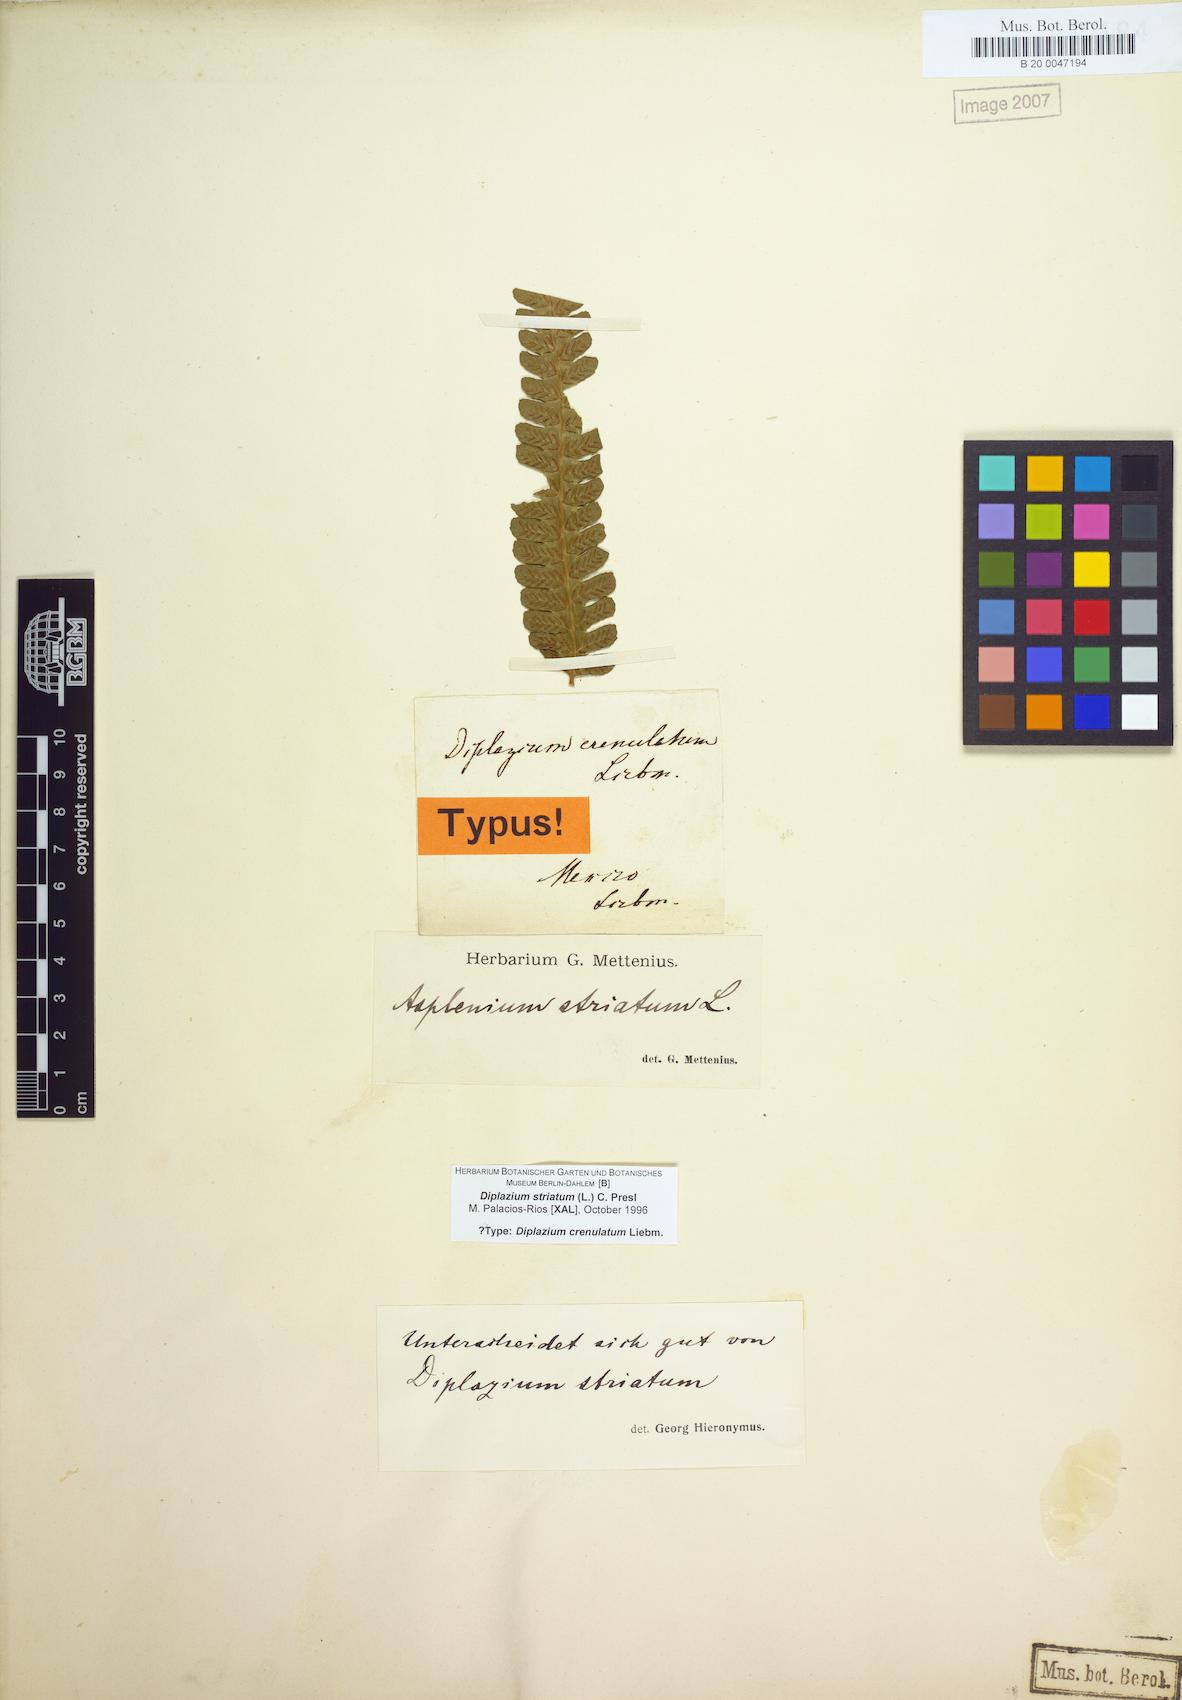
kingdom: Plantae
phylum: Tracheophyta
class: Polypodiopsida
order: Polypodiales
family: Athyriaceae
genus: Diplazium
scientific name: Diplazium striatum
